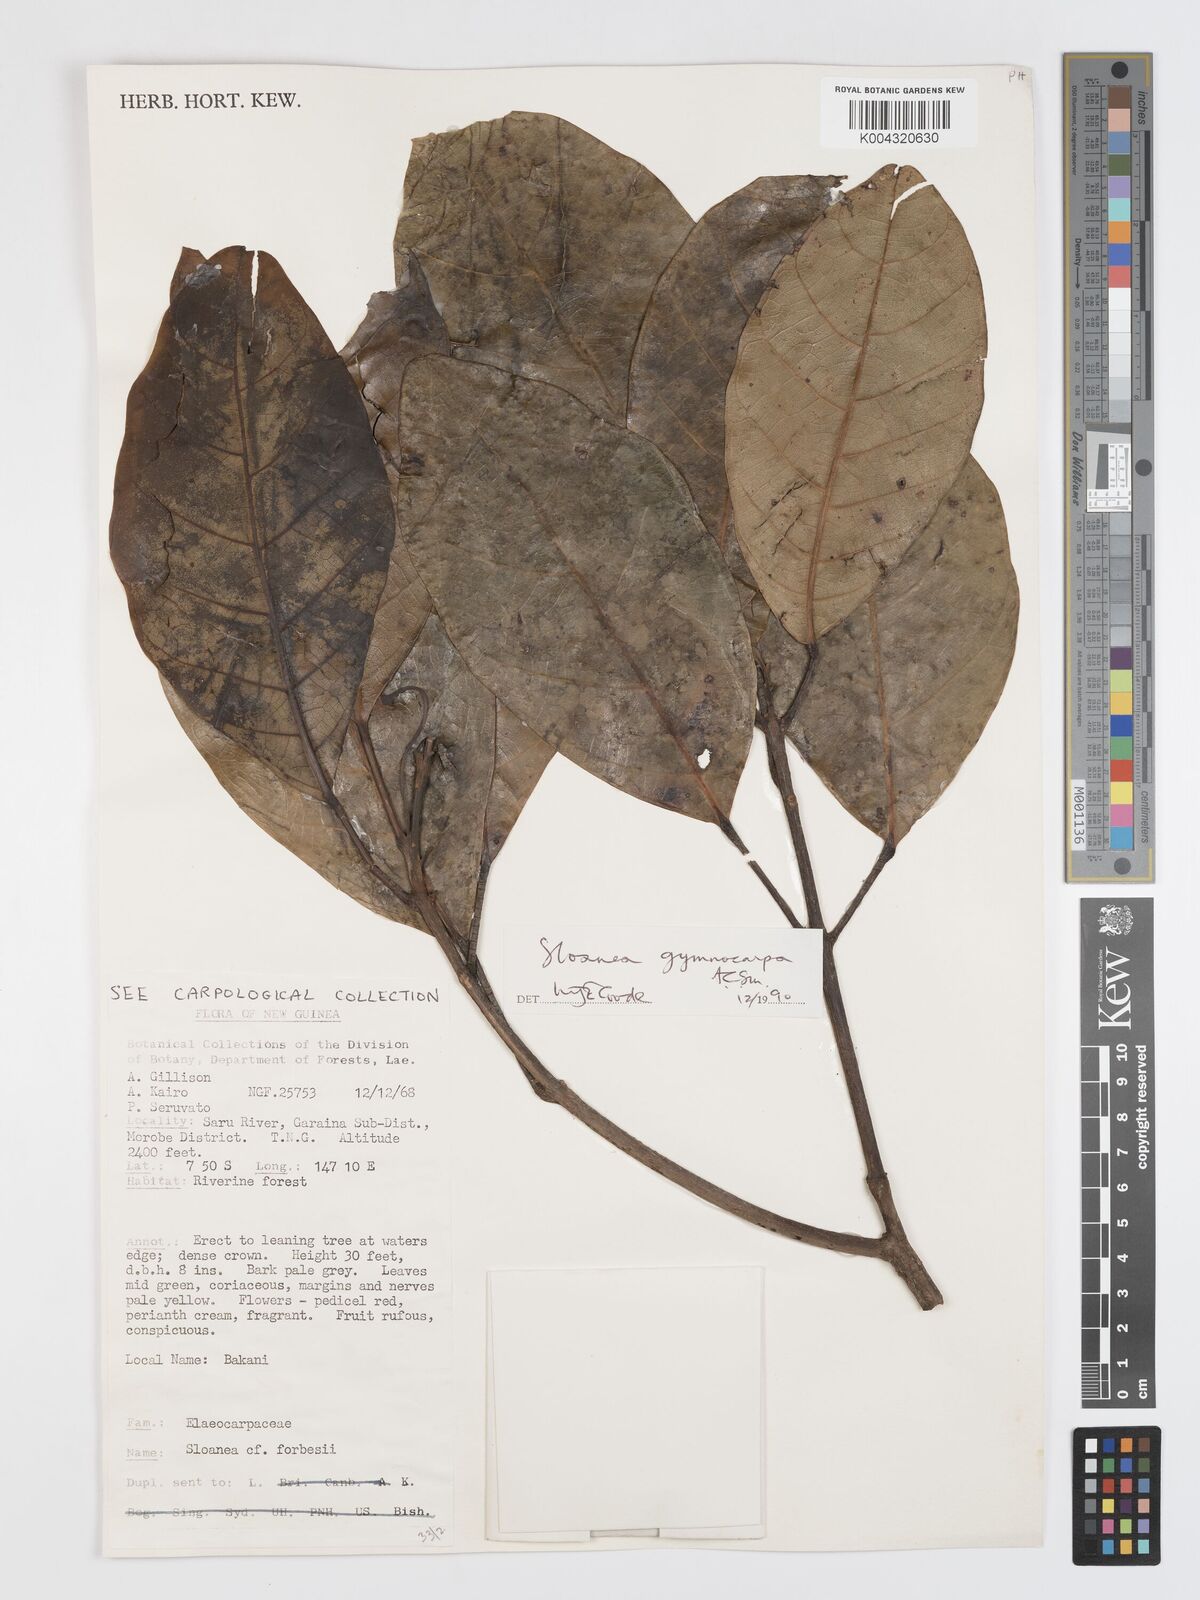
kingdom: Plantae
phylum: Tracheophyta
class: Magnoliopsida
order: Oxalidales
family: Elaeocarpaceae
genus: Sloanea
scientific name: Sloanea gymnocarpa
